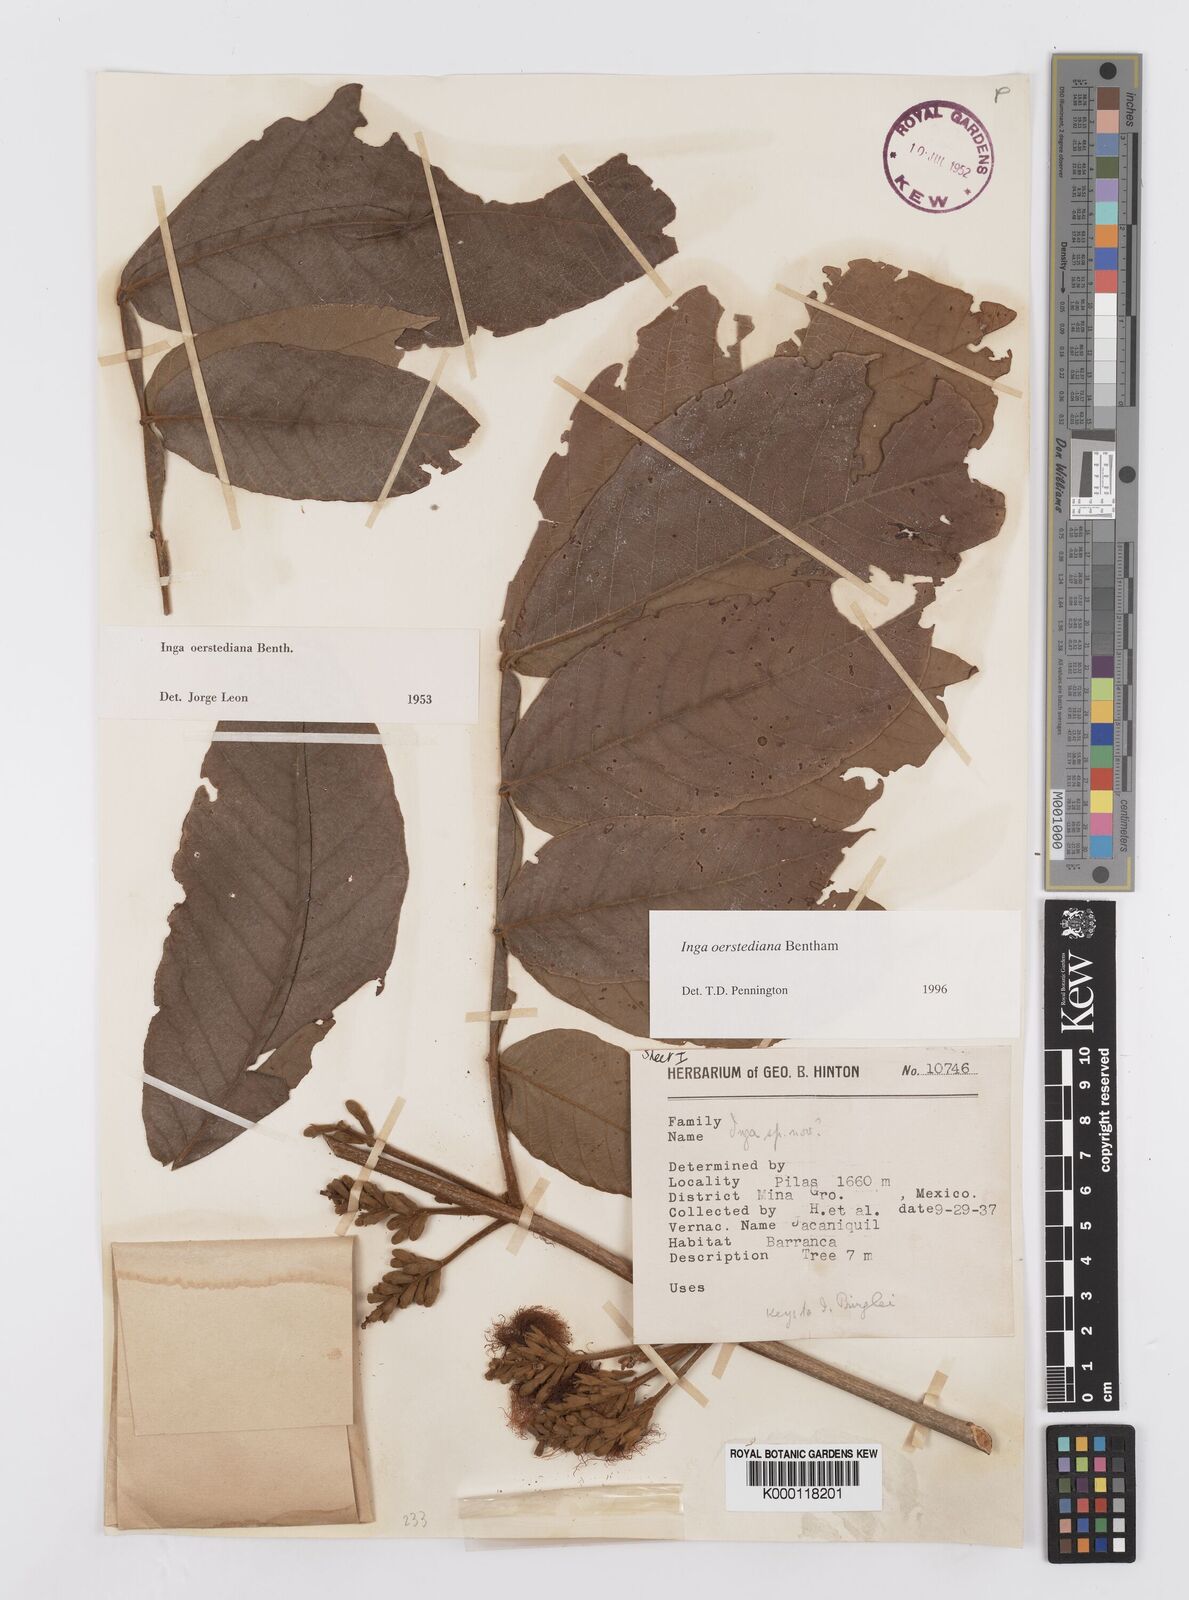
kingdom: Plantae
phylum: Tracheophyta
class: Magnoliopsida
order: Fabales
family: Fabaceae
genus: Inga
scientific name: Inga oerstediana
